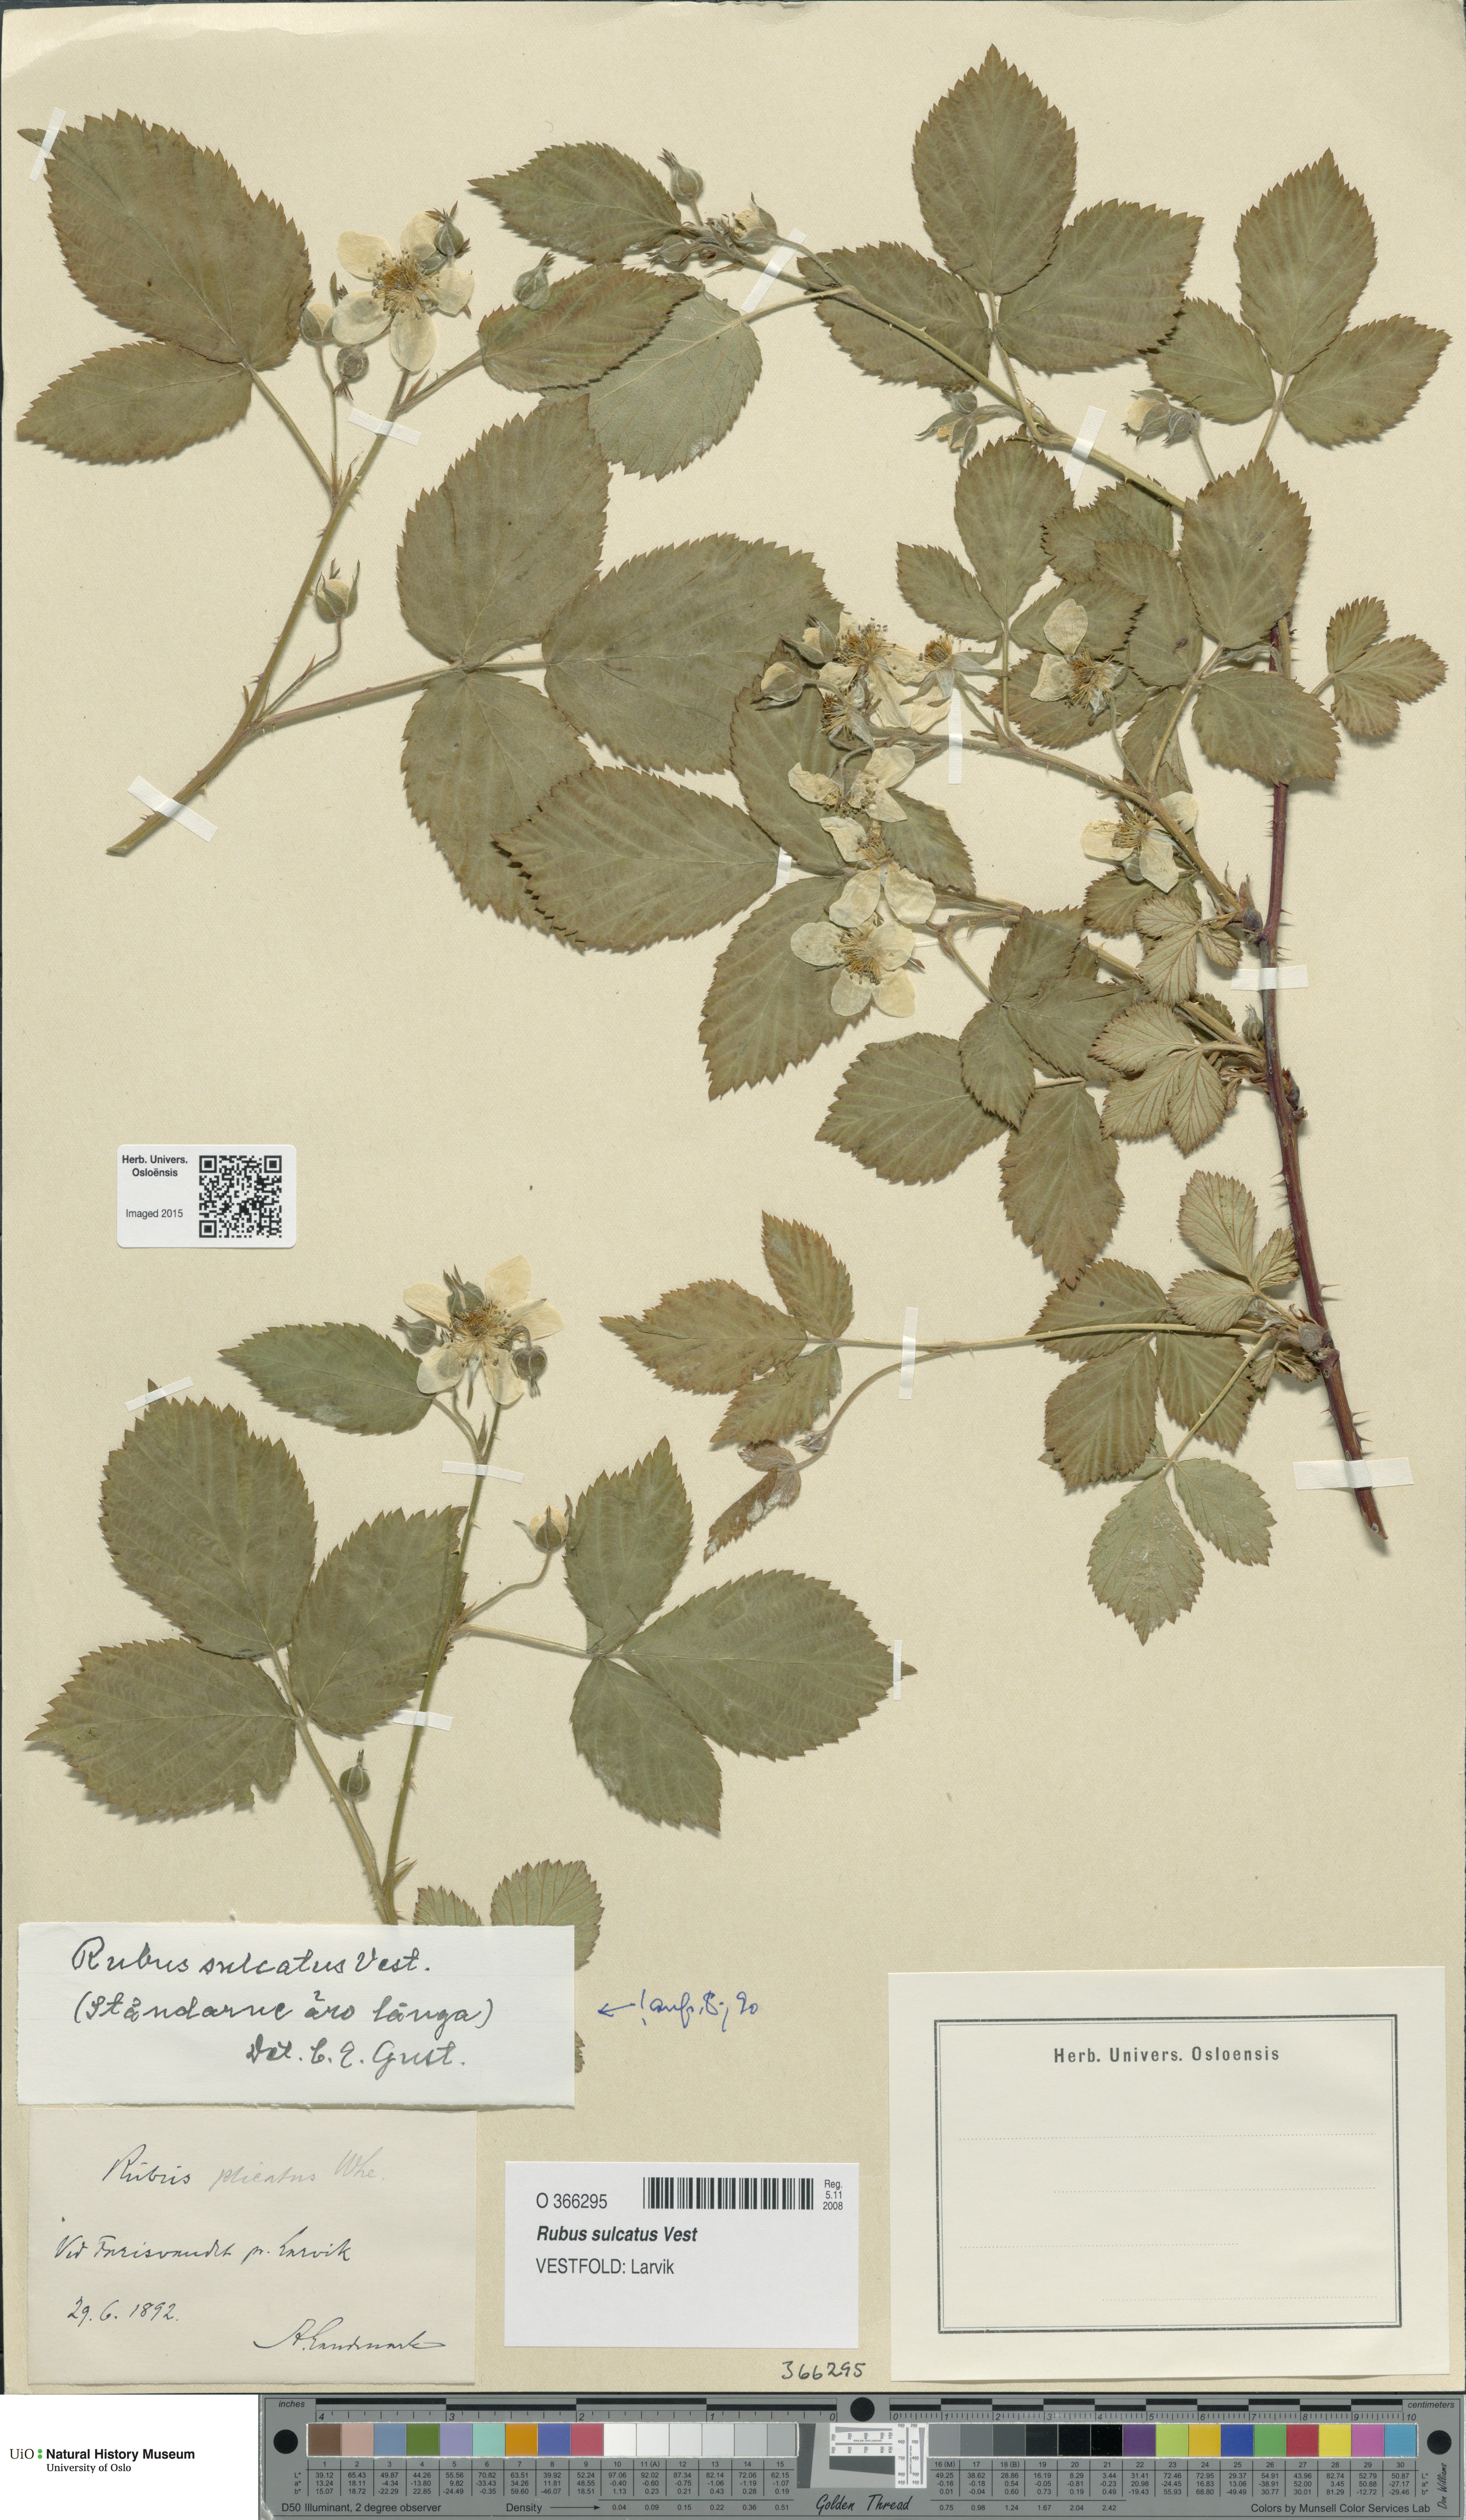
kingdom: Plantae
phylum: Tracheophyta
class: Magnoliopsida
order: Rosales
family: Rosaceae
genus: Rubus
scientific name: Rubus sulcatus
